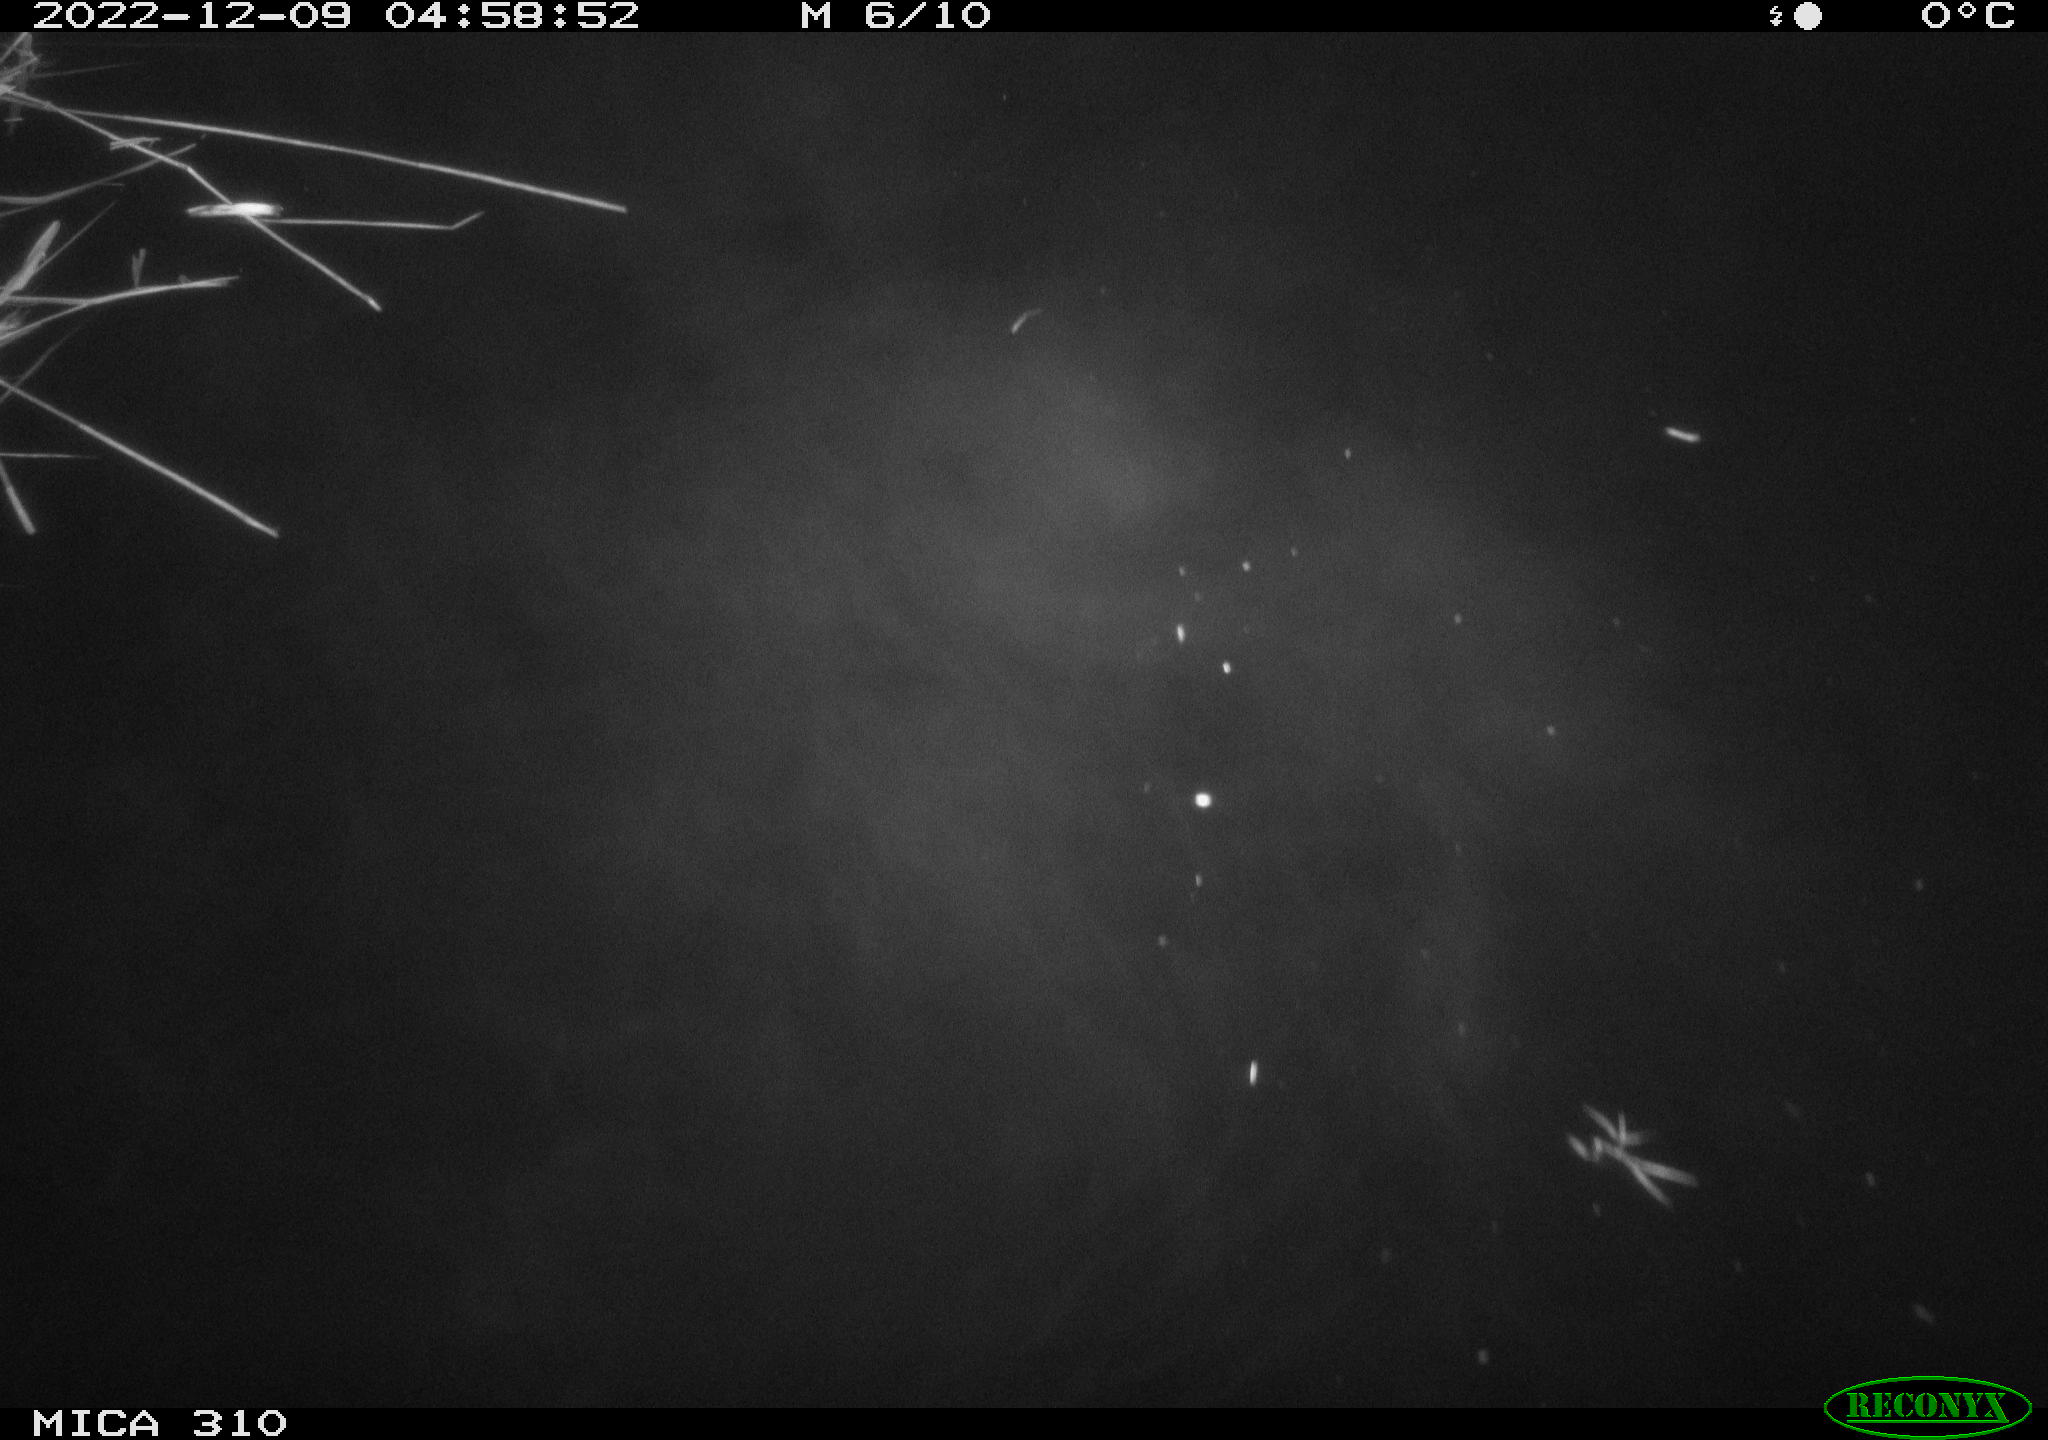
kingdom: Animalia
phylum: Chordata
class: Mammalia
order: Rodentia
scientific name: Rodentia
